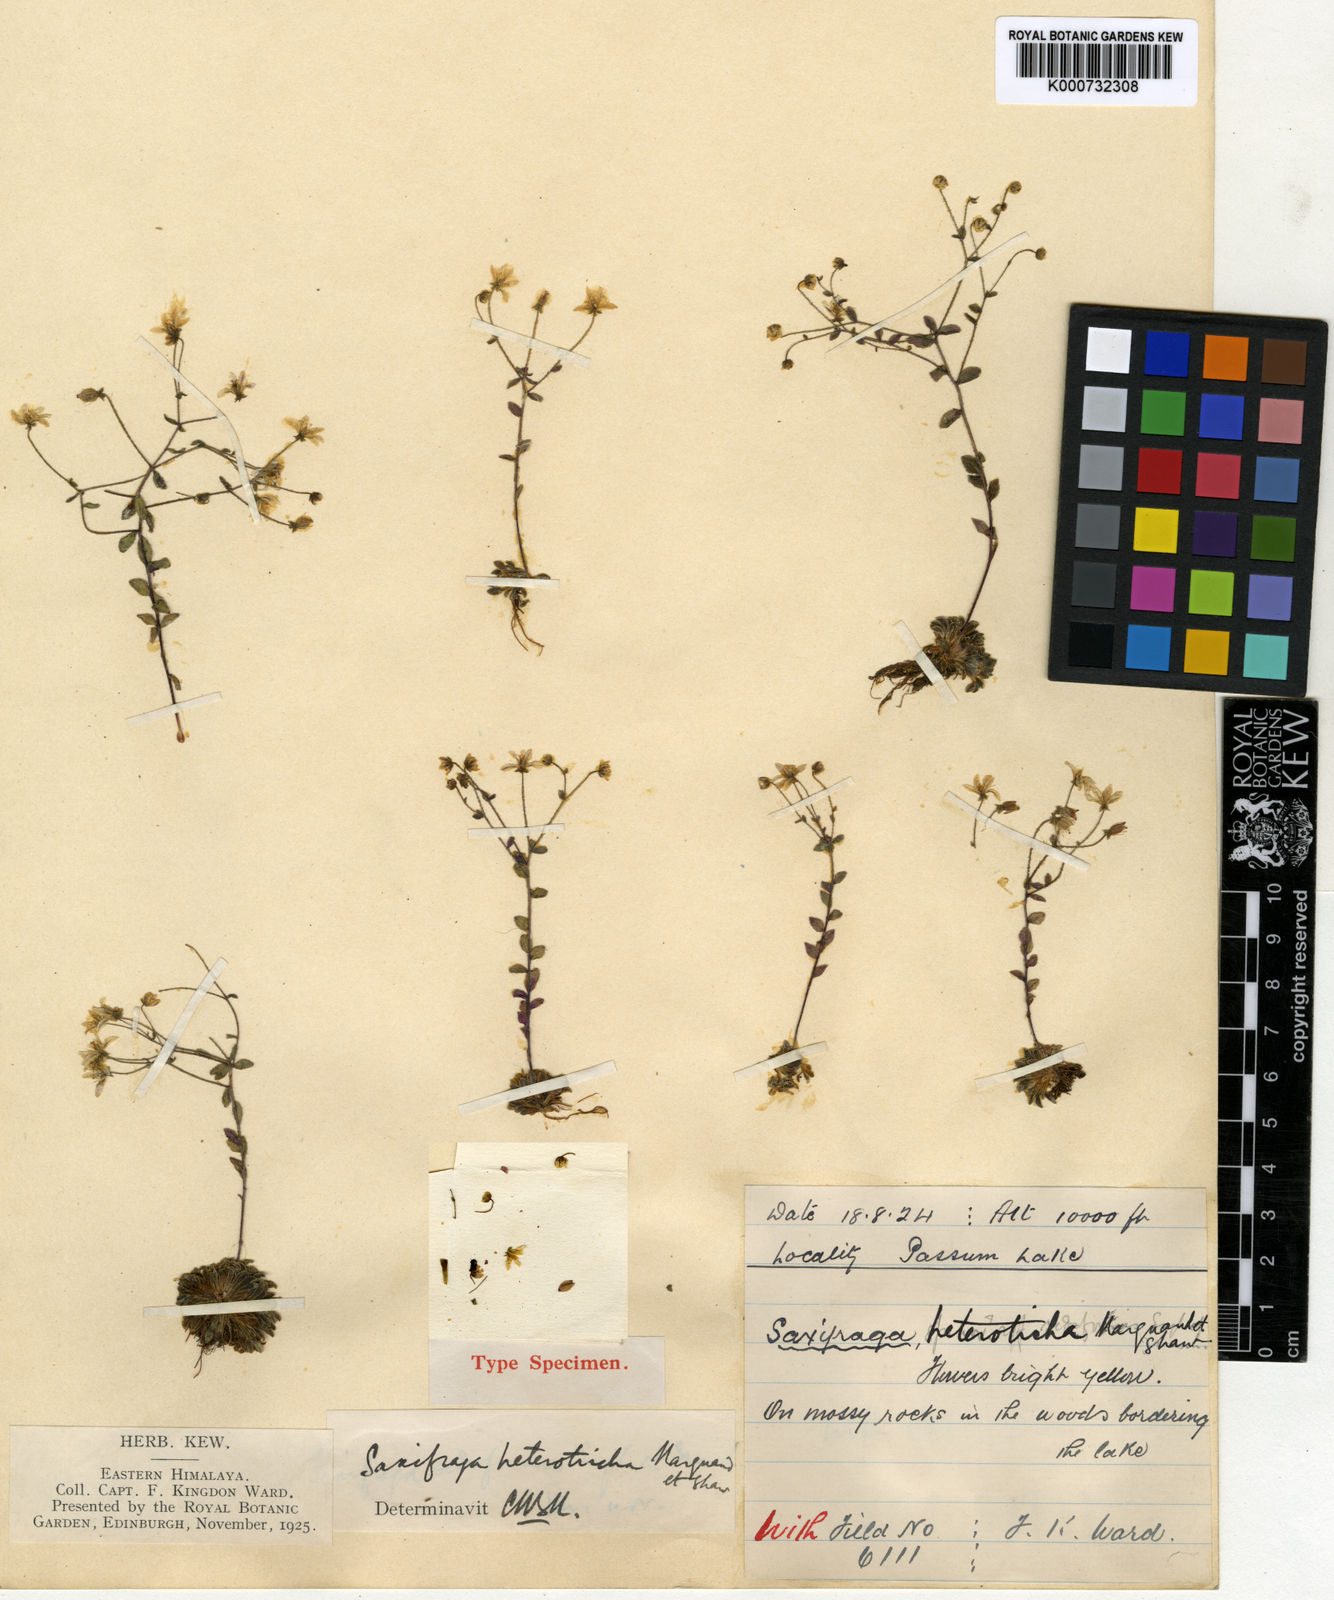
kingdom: Plantae
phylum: Tracheophyta
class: Magnoliopsida
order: Saxifragales
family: Saxifragaceae
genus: Saxifraga
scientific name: Saxifraga heterotricha
